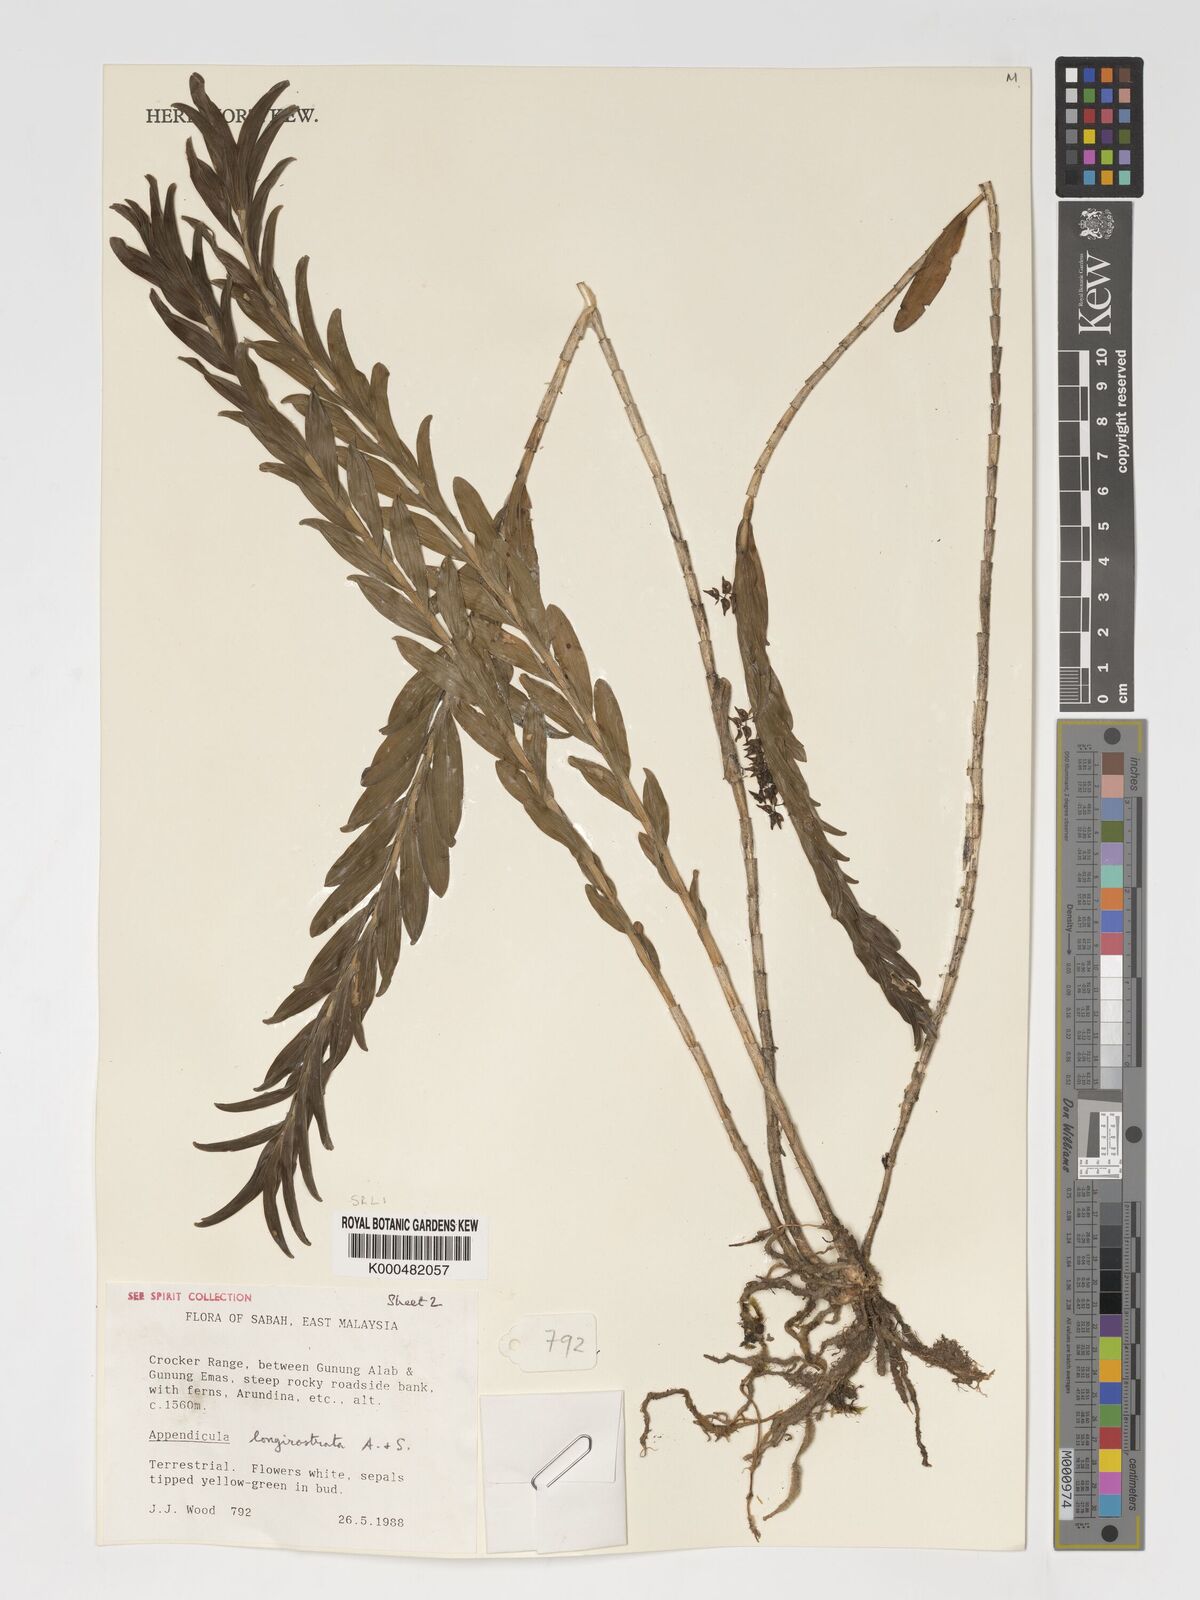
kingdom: Plantae
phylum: Tracheophyta
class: Liliopsida
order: Asparagales
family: Orchidaceae
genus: Appendicula
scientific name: Appendicula longirostrata
